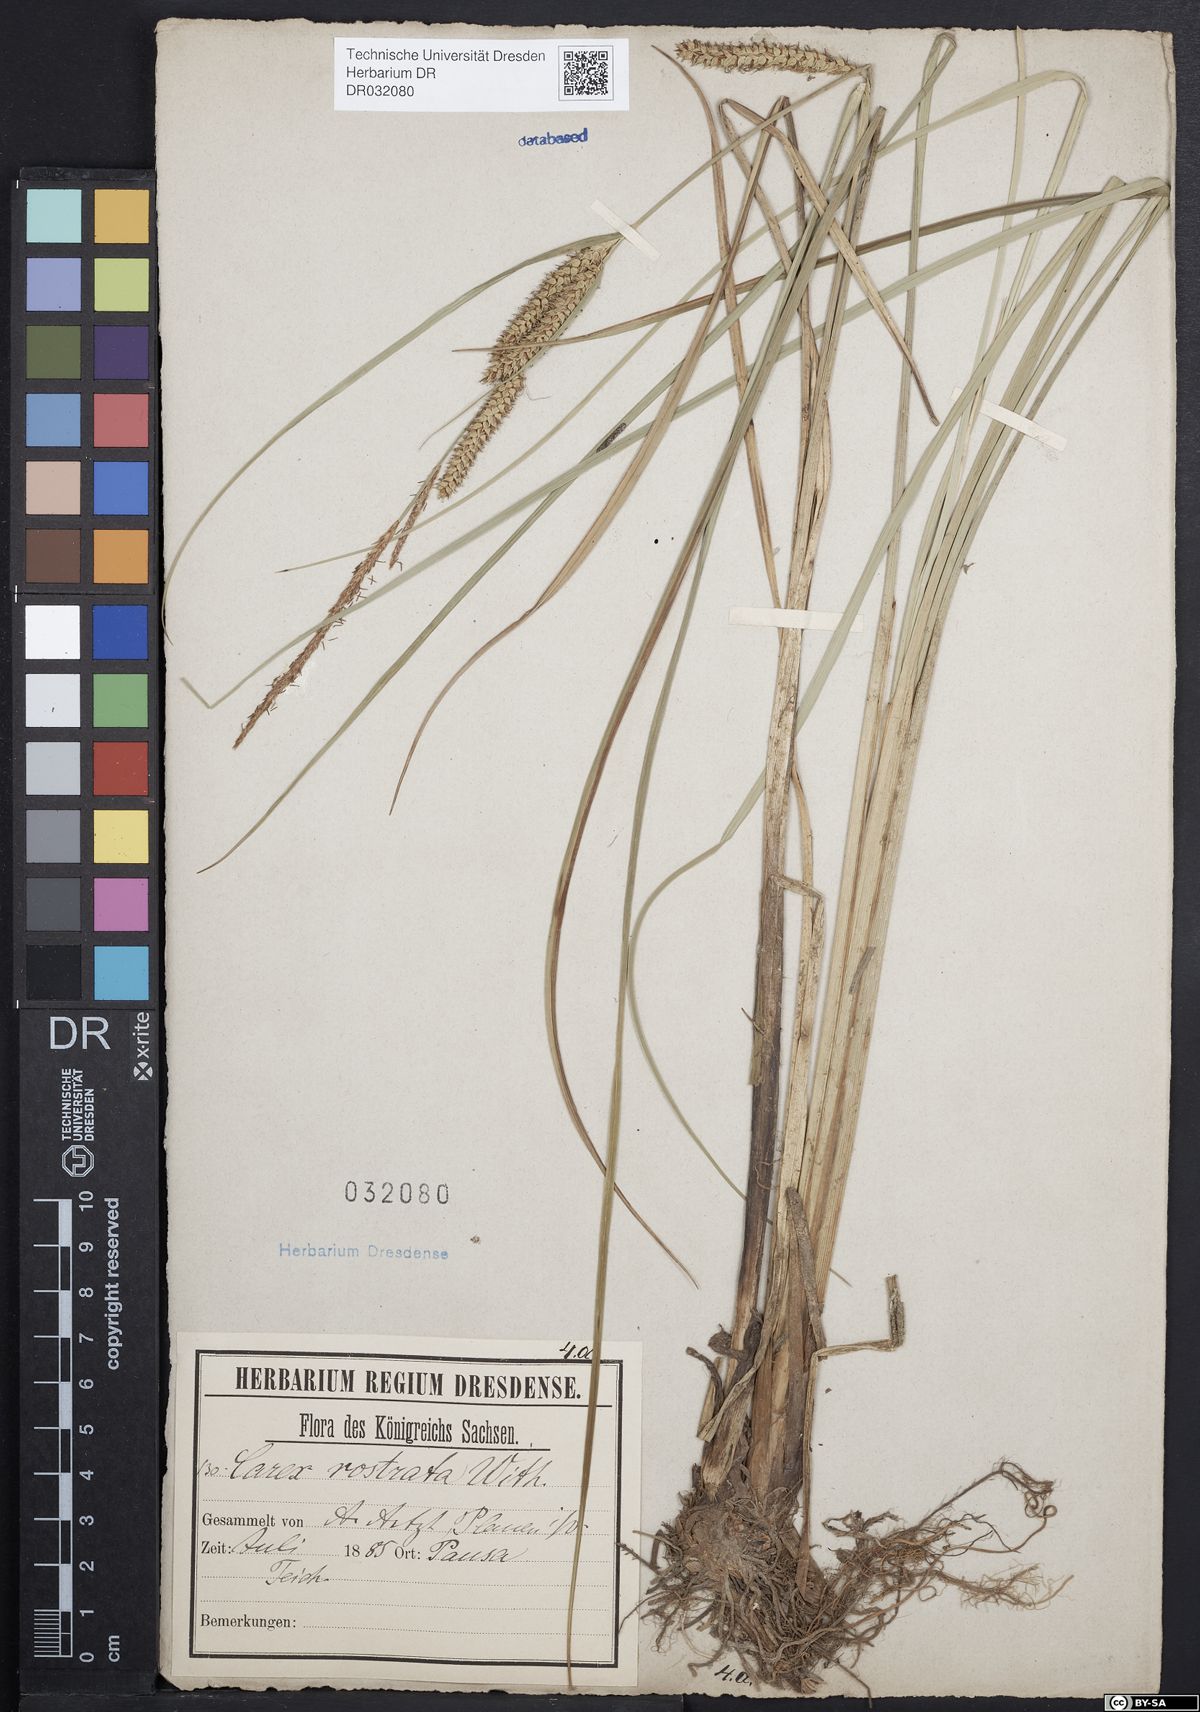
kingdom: Plantae
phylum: Tracheophyta
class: Liliopsida
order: Poales
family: Cyperaceae
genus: Carex
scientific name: Carex rostrata
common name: Bottle sedge
